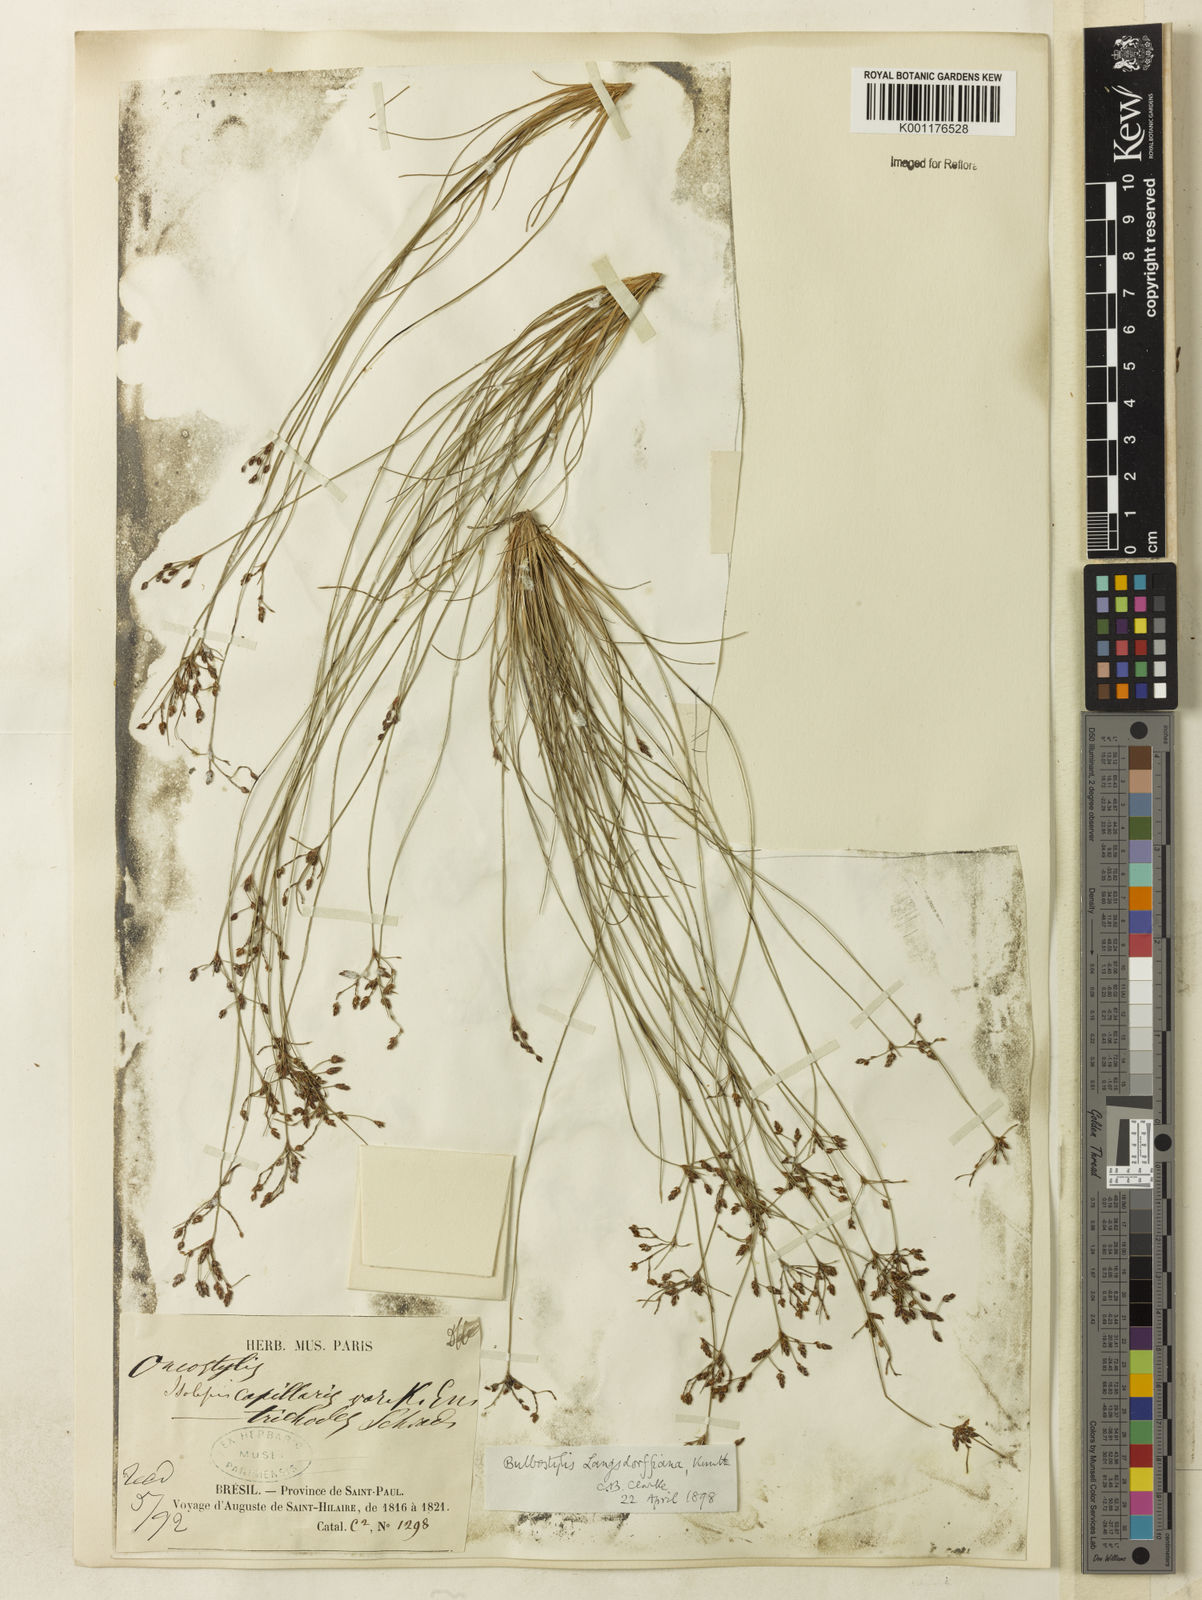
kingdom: Plantae
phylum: Tracheophyta
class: Liliopsida
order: Poales
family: Cyperaceae
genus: Bulbostylis
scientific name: Bulbostylis juncoides
